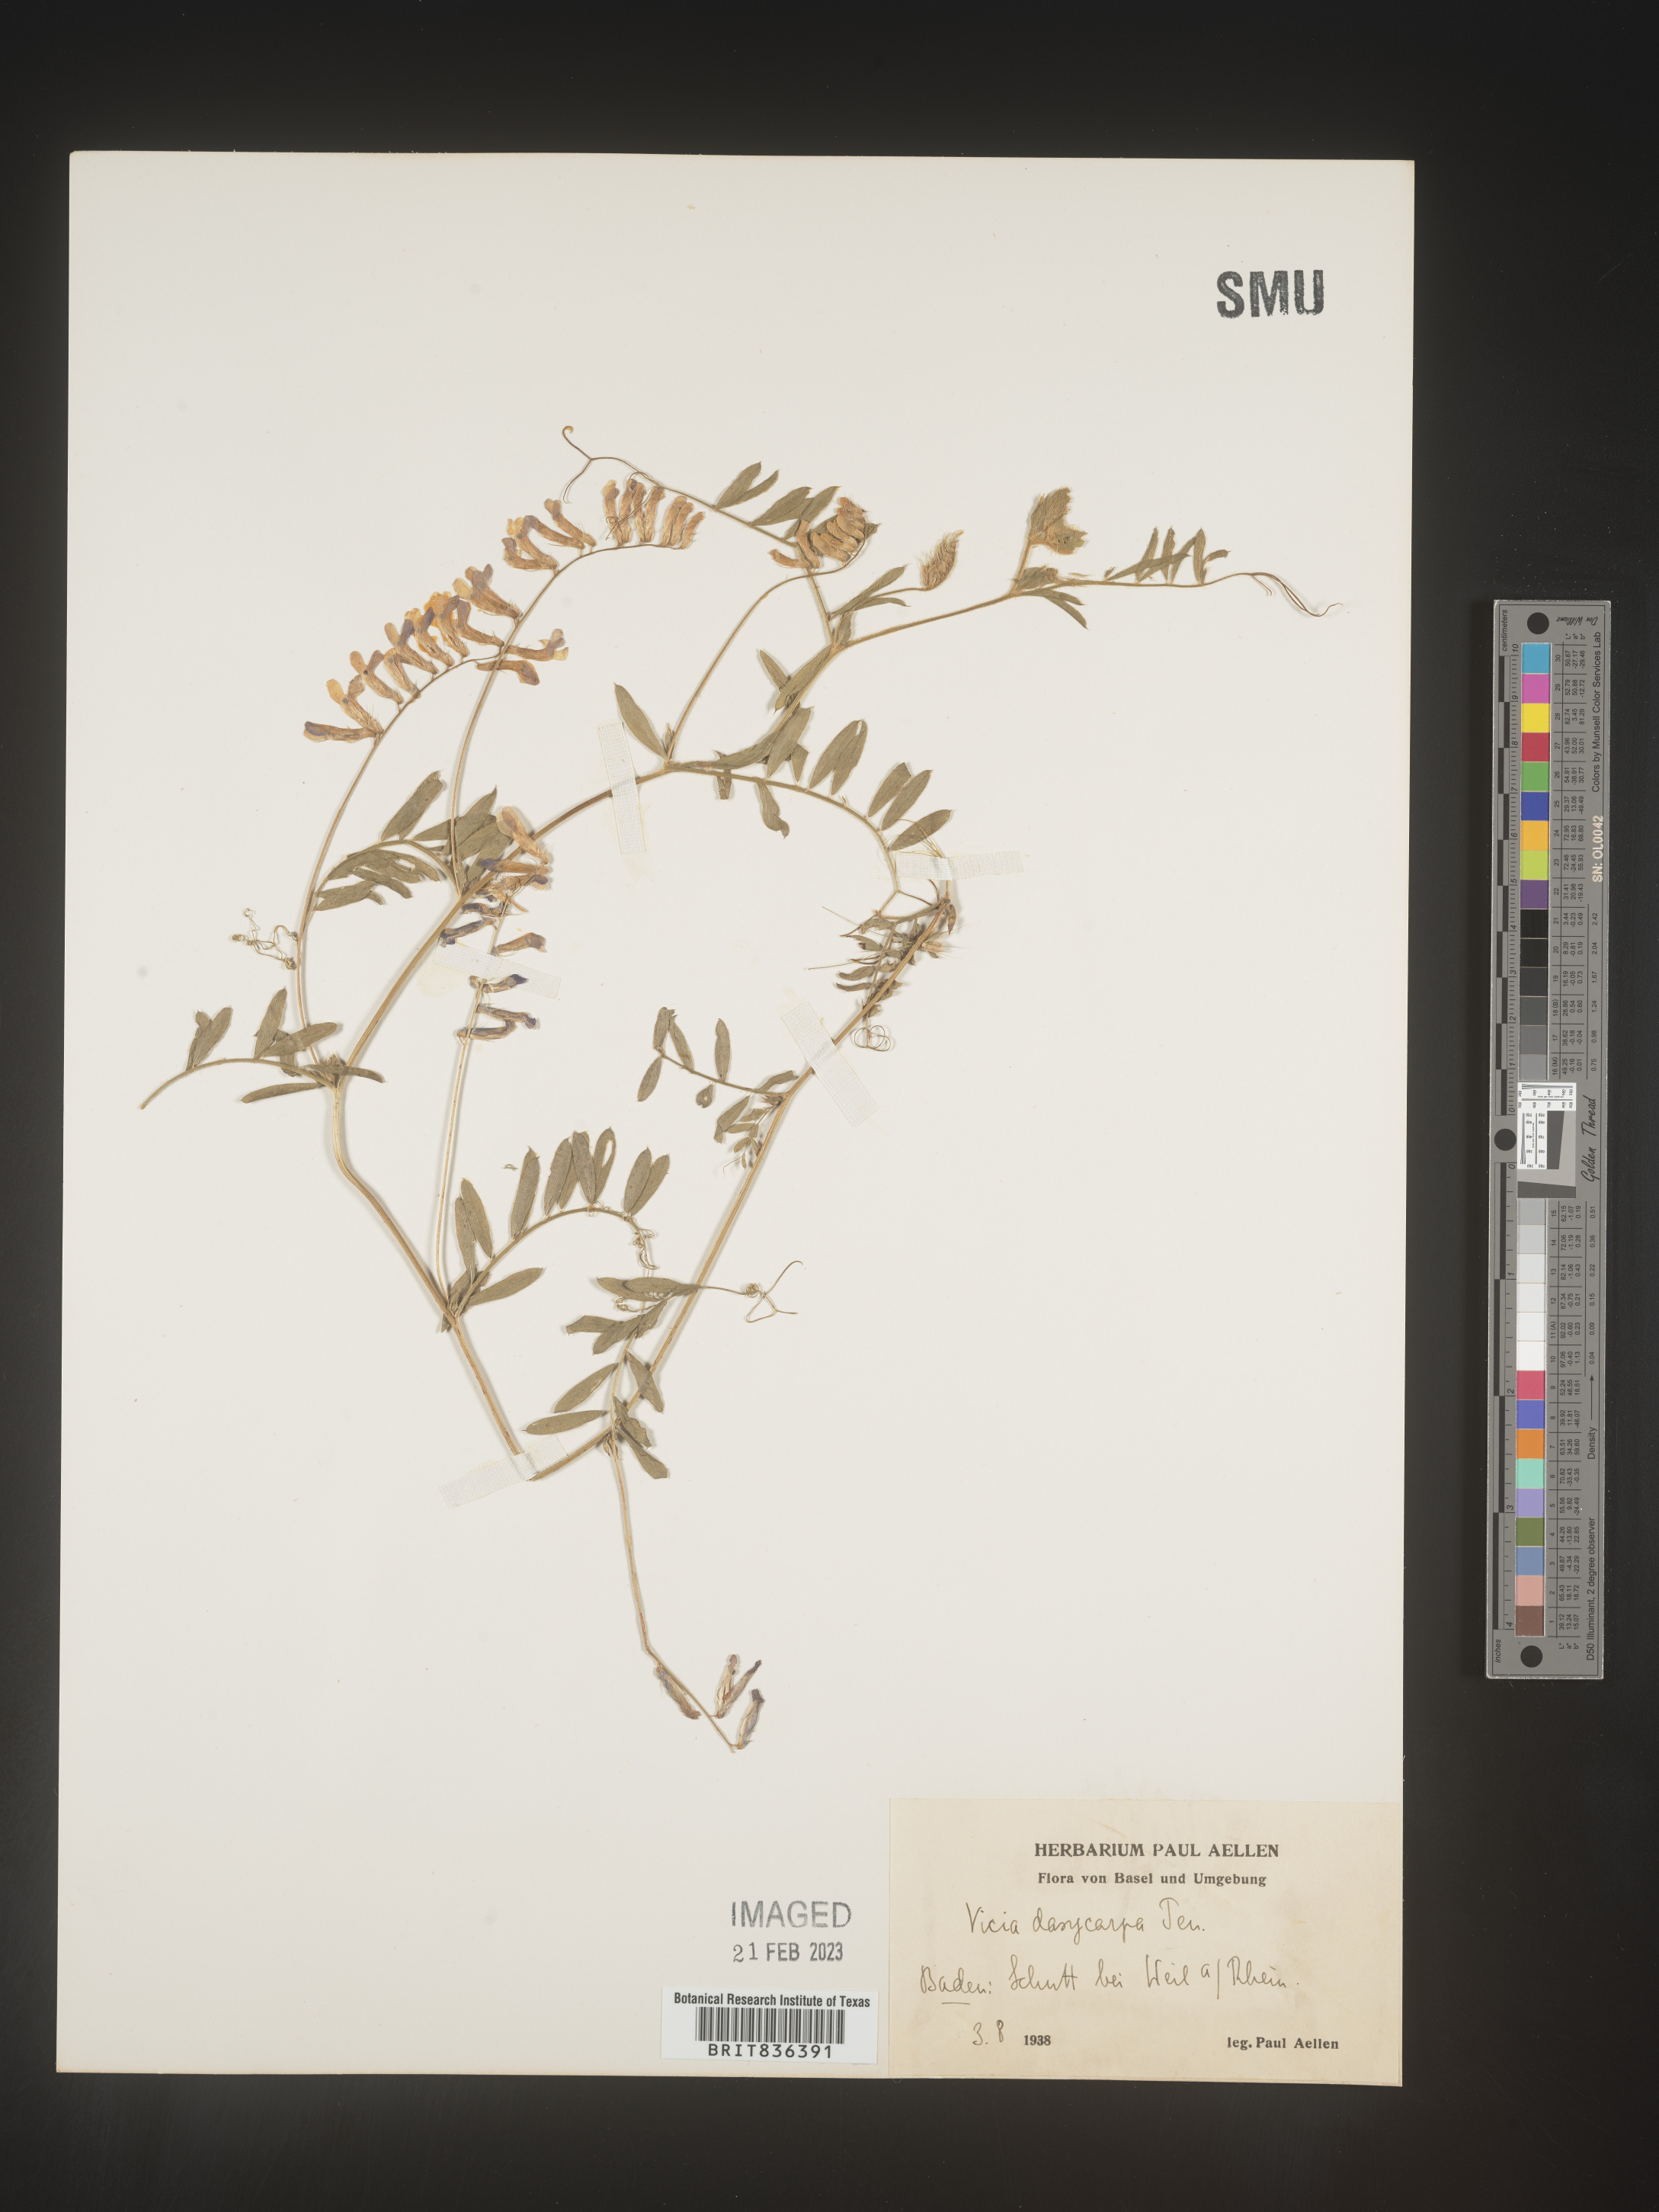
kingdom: Plantae
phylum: Tracheophyta
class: Magnoliopsida
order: Fabales
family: Fabaceae
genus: Vicia
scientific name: Vicia
